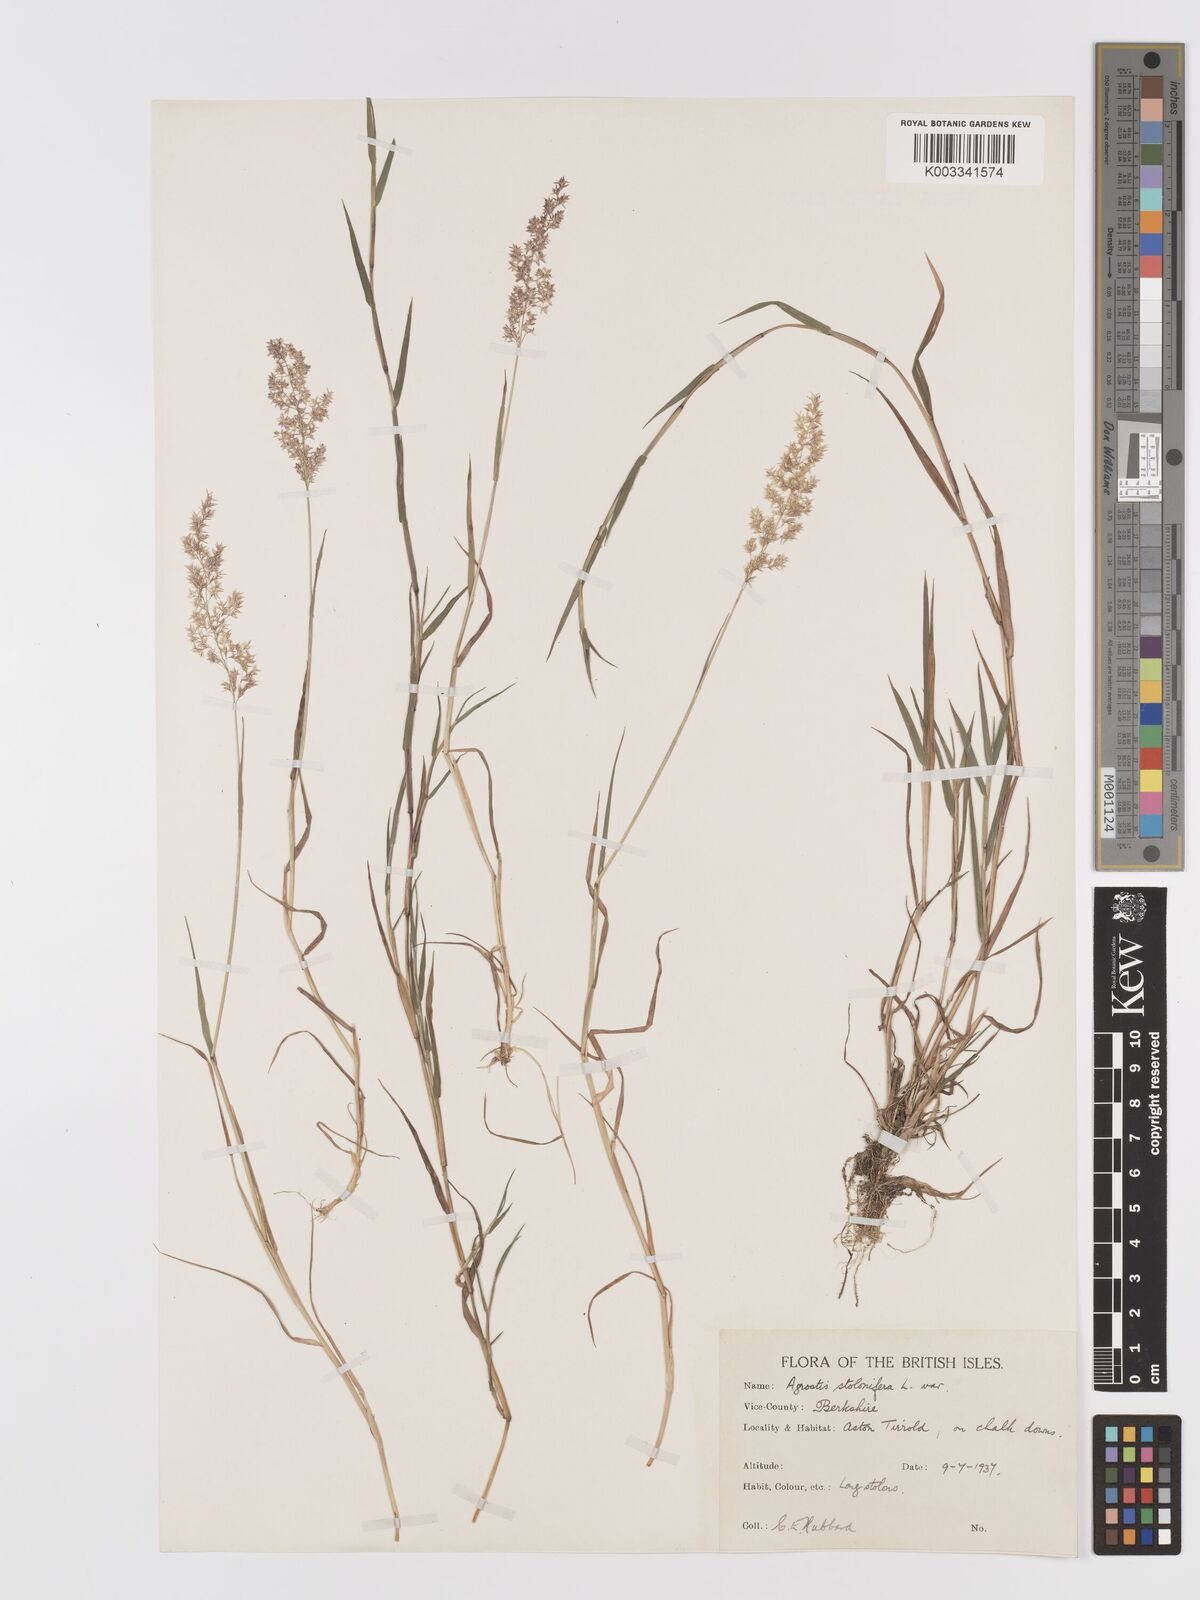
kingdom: Plantae
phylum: Tracheophyta
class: Liliopsida
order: Poales
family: Poaceae
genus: Agrostis
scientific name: Agrostis stolonifera
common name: Creeping bentgrass
